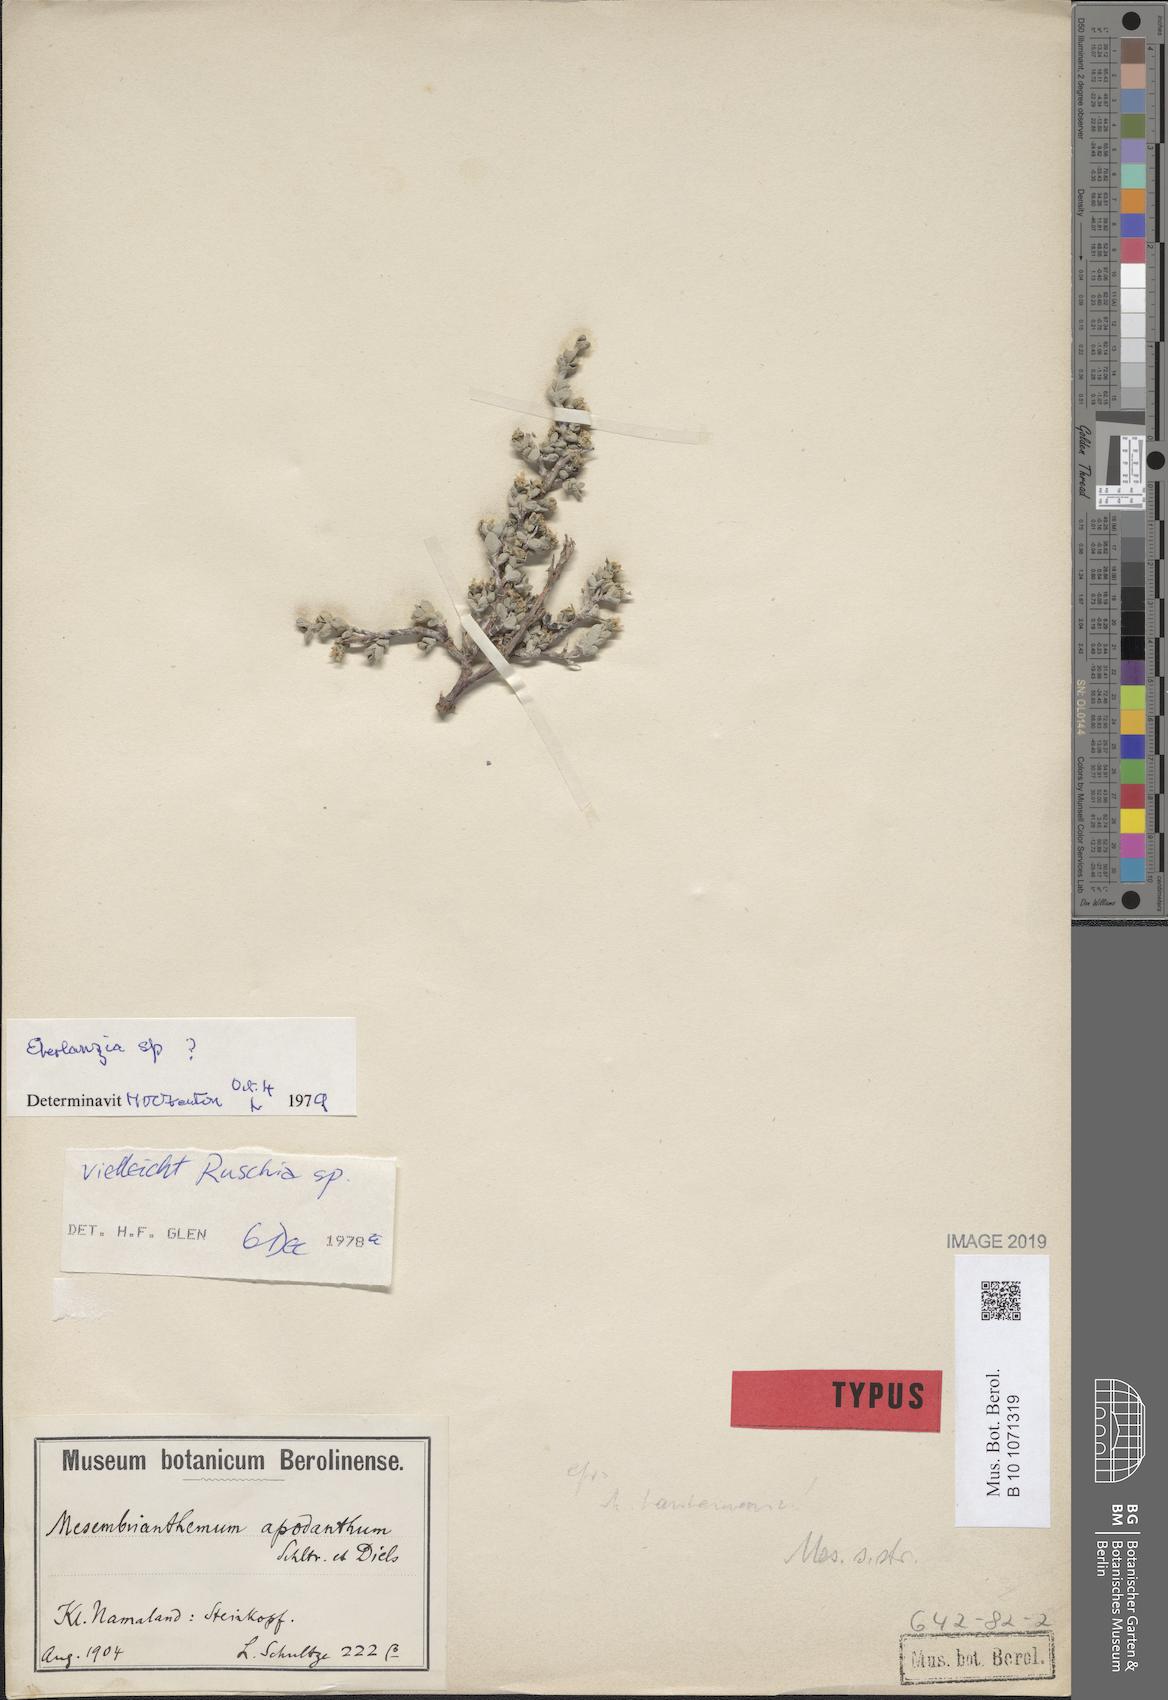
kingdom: Plantae
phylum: Tracheophyta
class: Magnoliopsida
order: Caryophyllales
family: Aizoaceae
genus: Leipoldtia
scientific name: Leipoldtia schultzei
